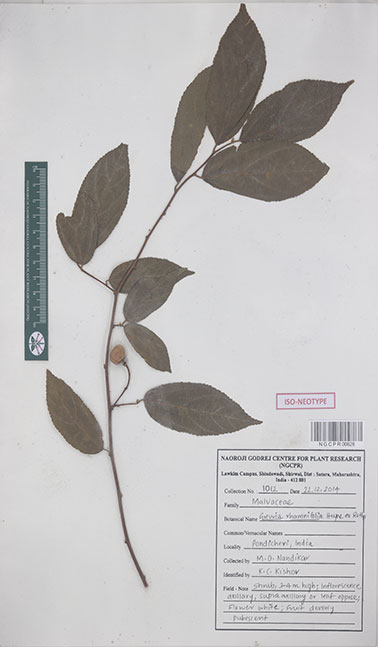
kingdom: Plantae
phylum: Tracheophyta
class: Magnoliopsida
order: Malvales
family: Malvaceae
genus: Grewia
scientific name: Grewia oppositifolia
